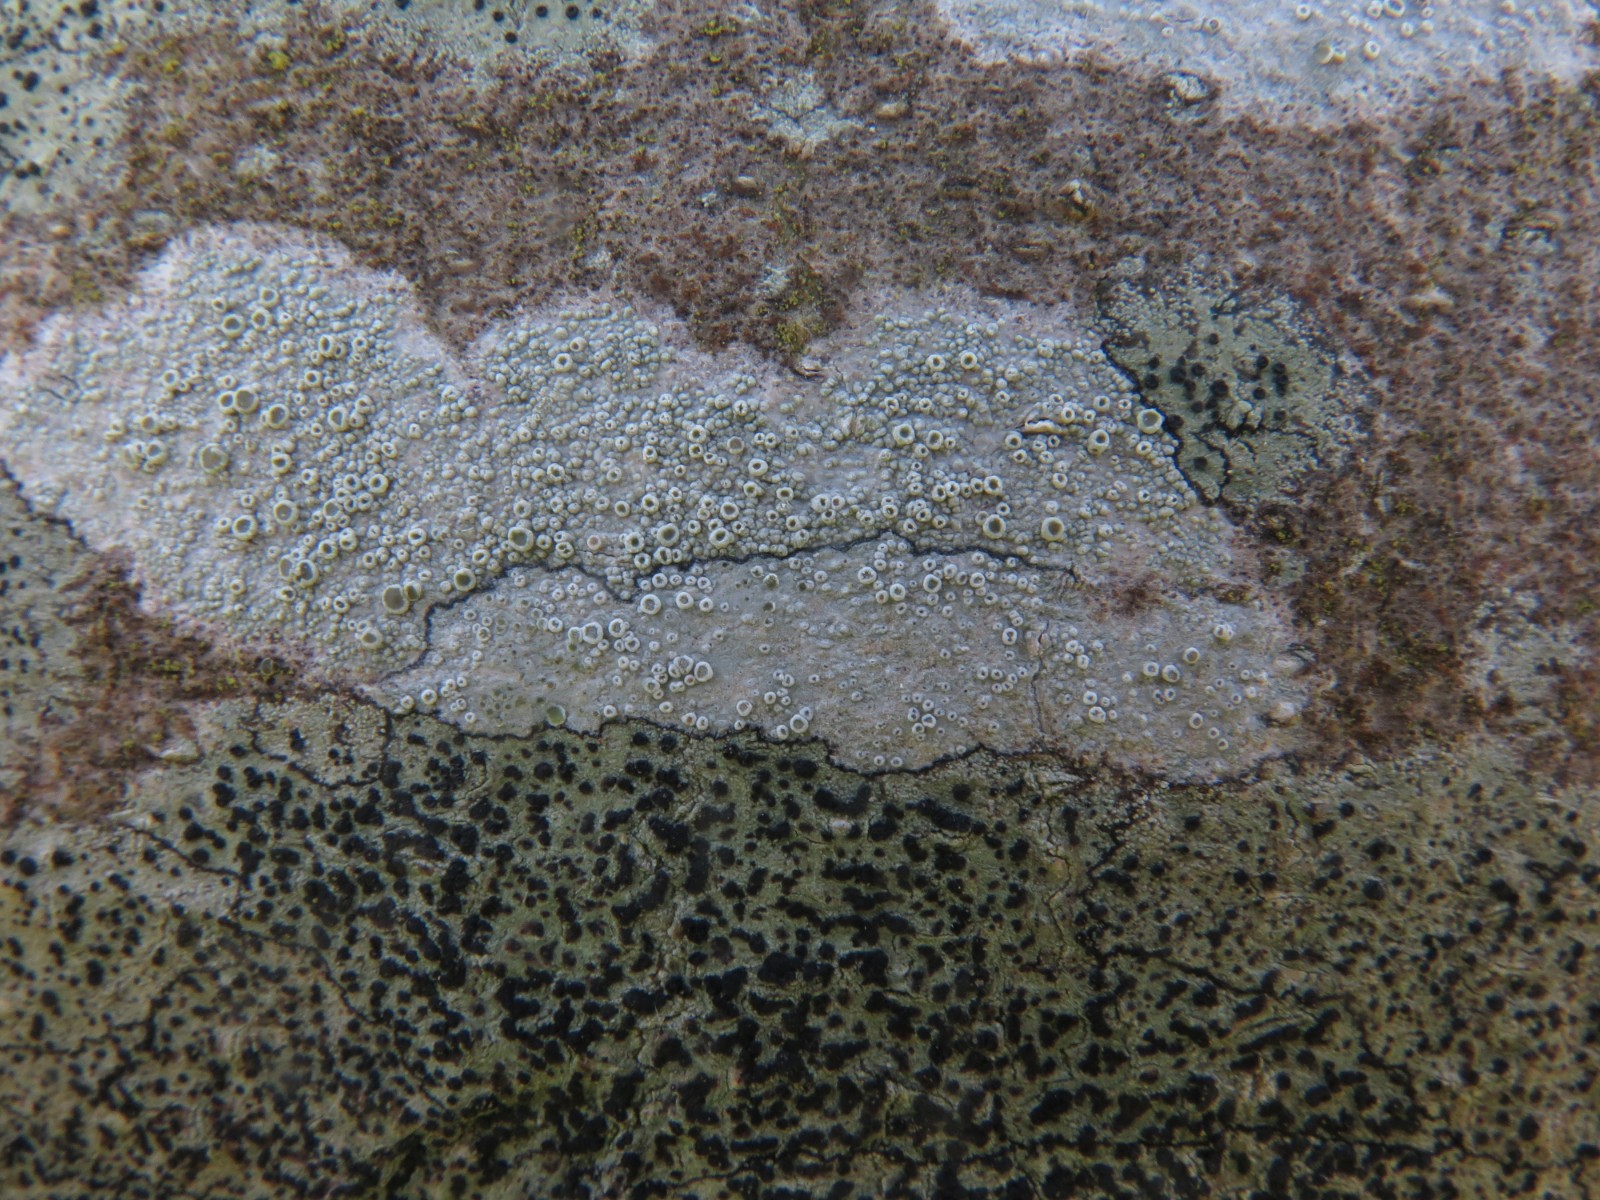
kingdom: Fungi
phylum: Ascomycota
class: Lecanoromycetes
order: Lecanorales
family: Lecanoraceae
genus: Lecanora
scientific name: Lecanora chlarotera
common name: brun kantskivelav
